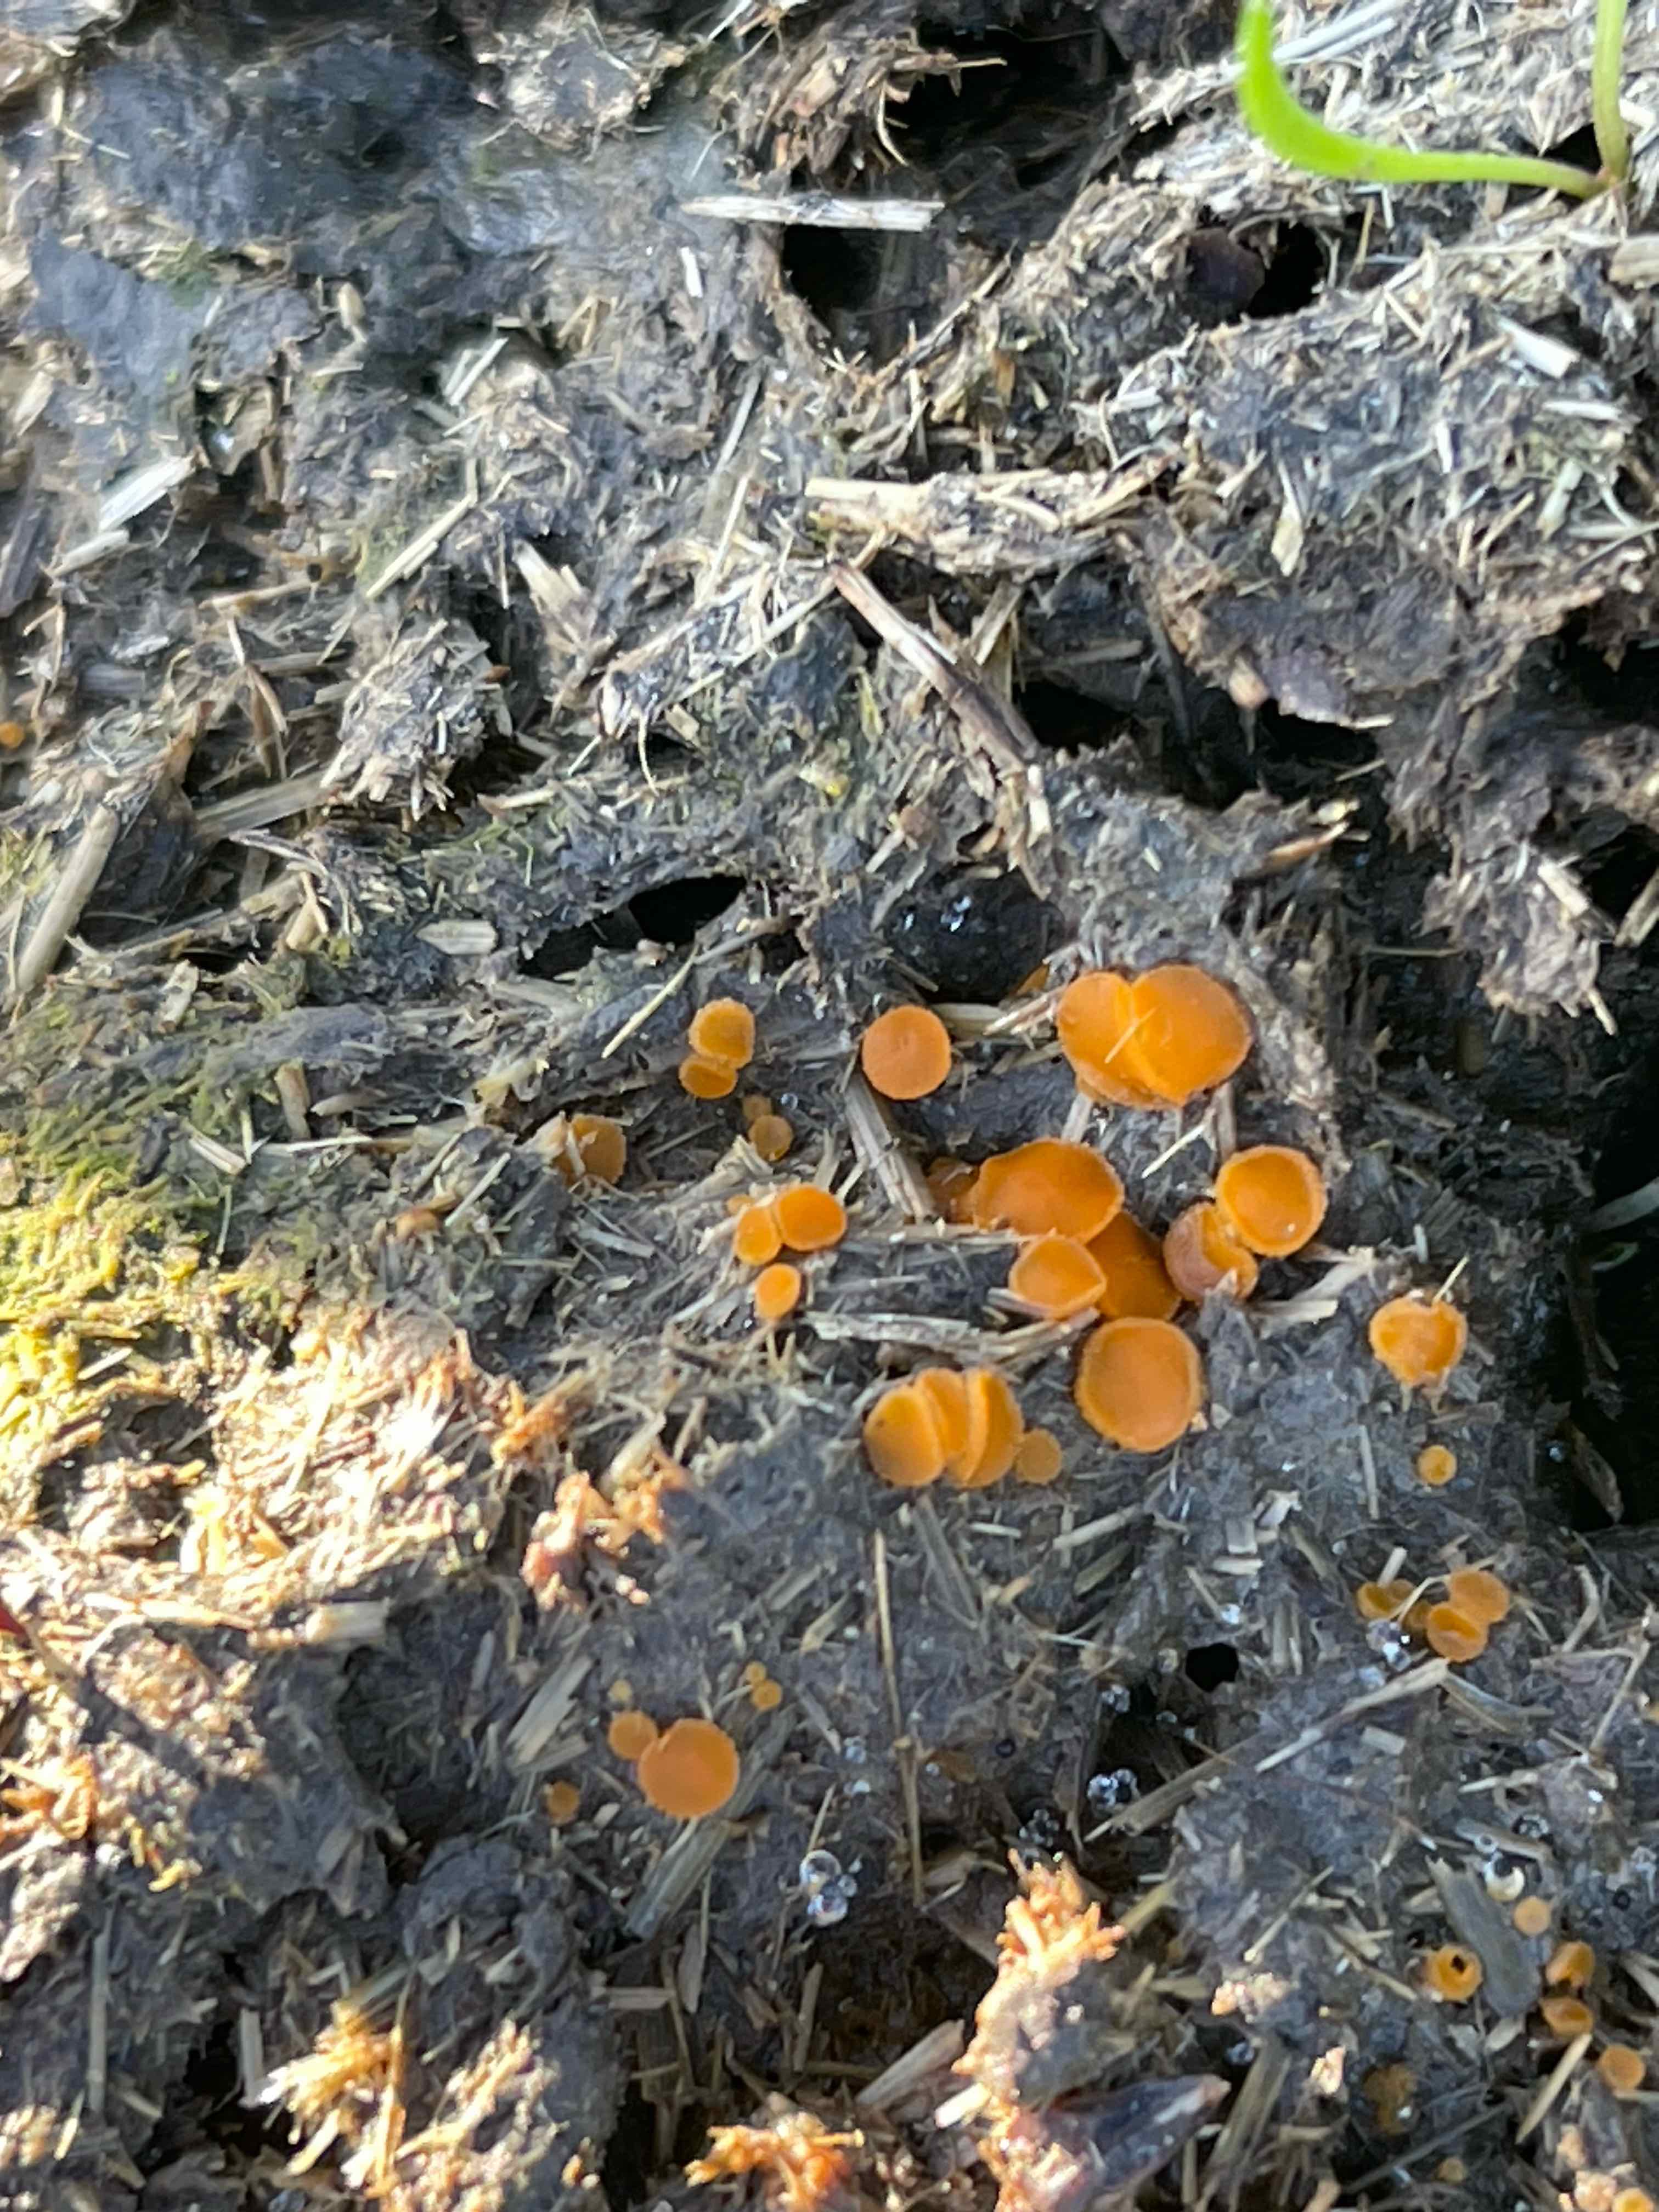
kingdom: Fungi
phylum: Ascomycota
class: Pezizomycetes
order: Pezizales
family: Pyronemataceae
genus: Cheilymenia
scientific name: Cheilymenia granulata
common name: møgbæger
